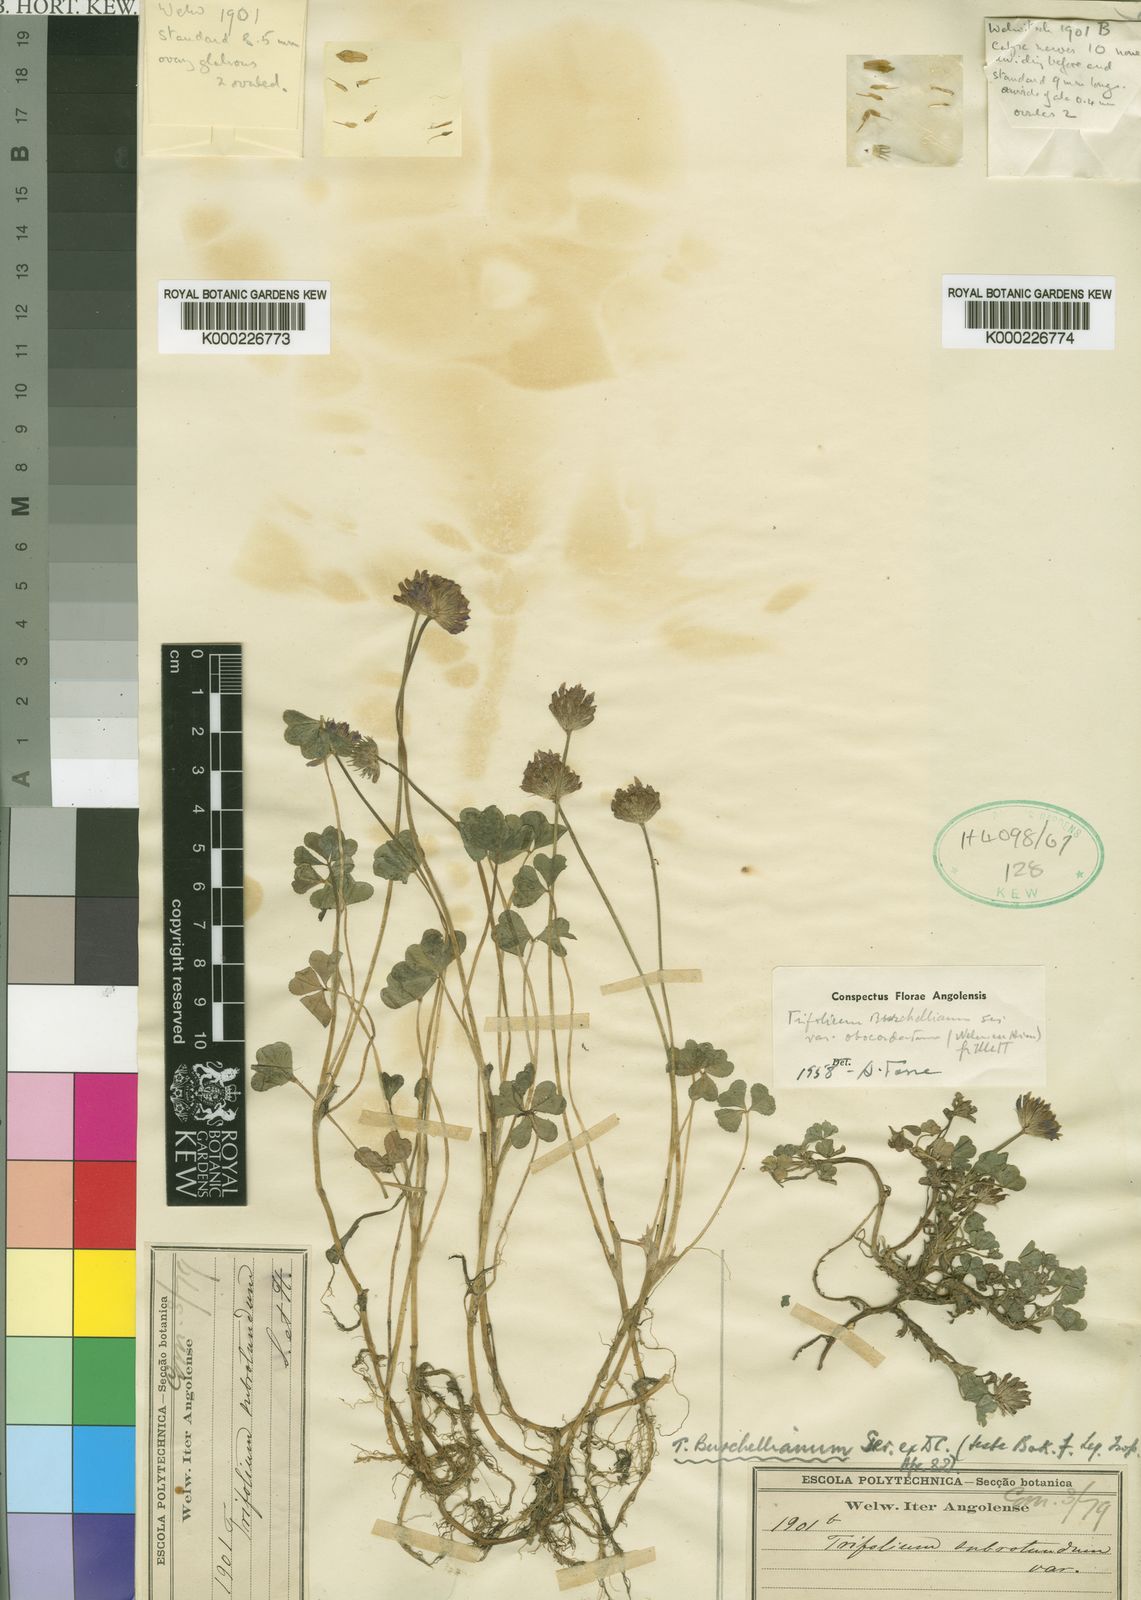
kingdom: Plantae
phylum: Tracheophyta
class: Magnoliopsida
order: Fabales
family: Fabaceae
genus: Trifolium
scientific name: Trifolium burchellianum
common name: Burchell's clover
